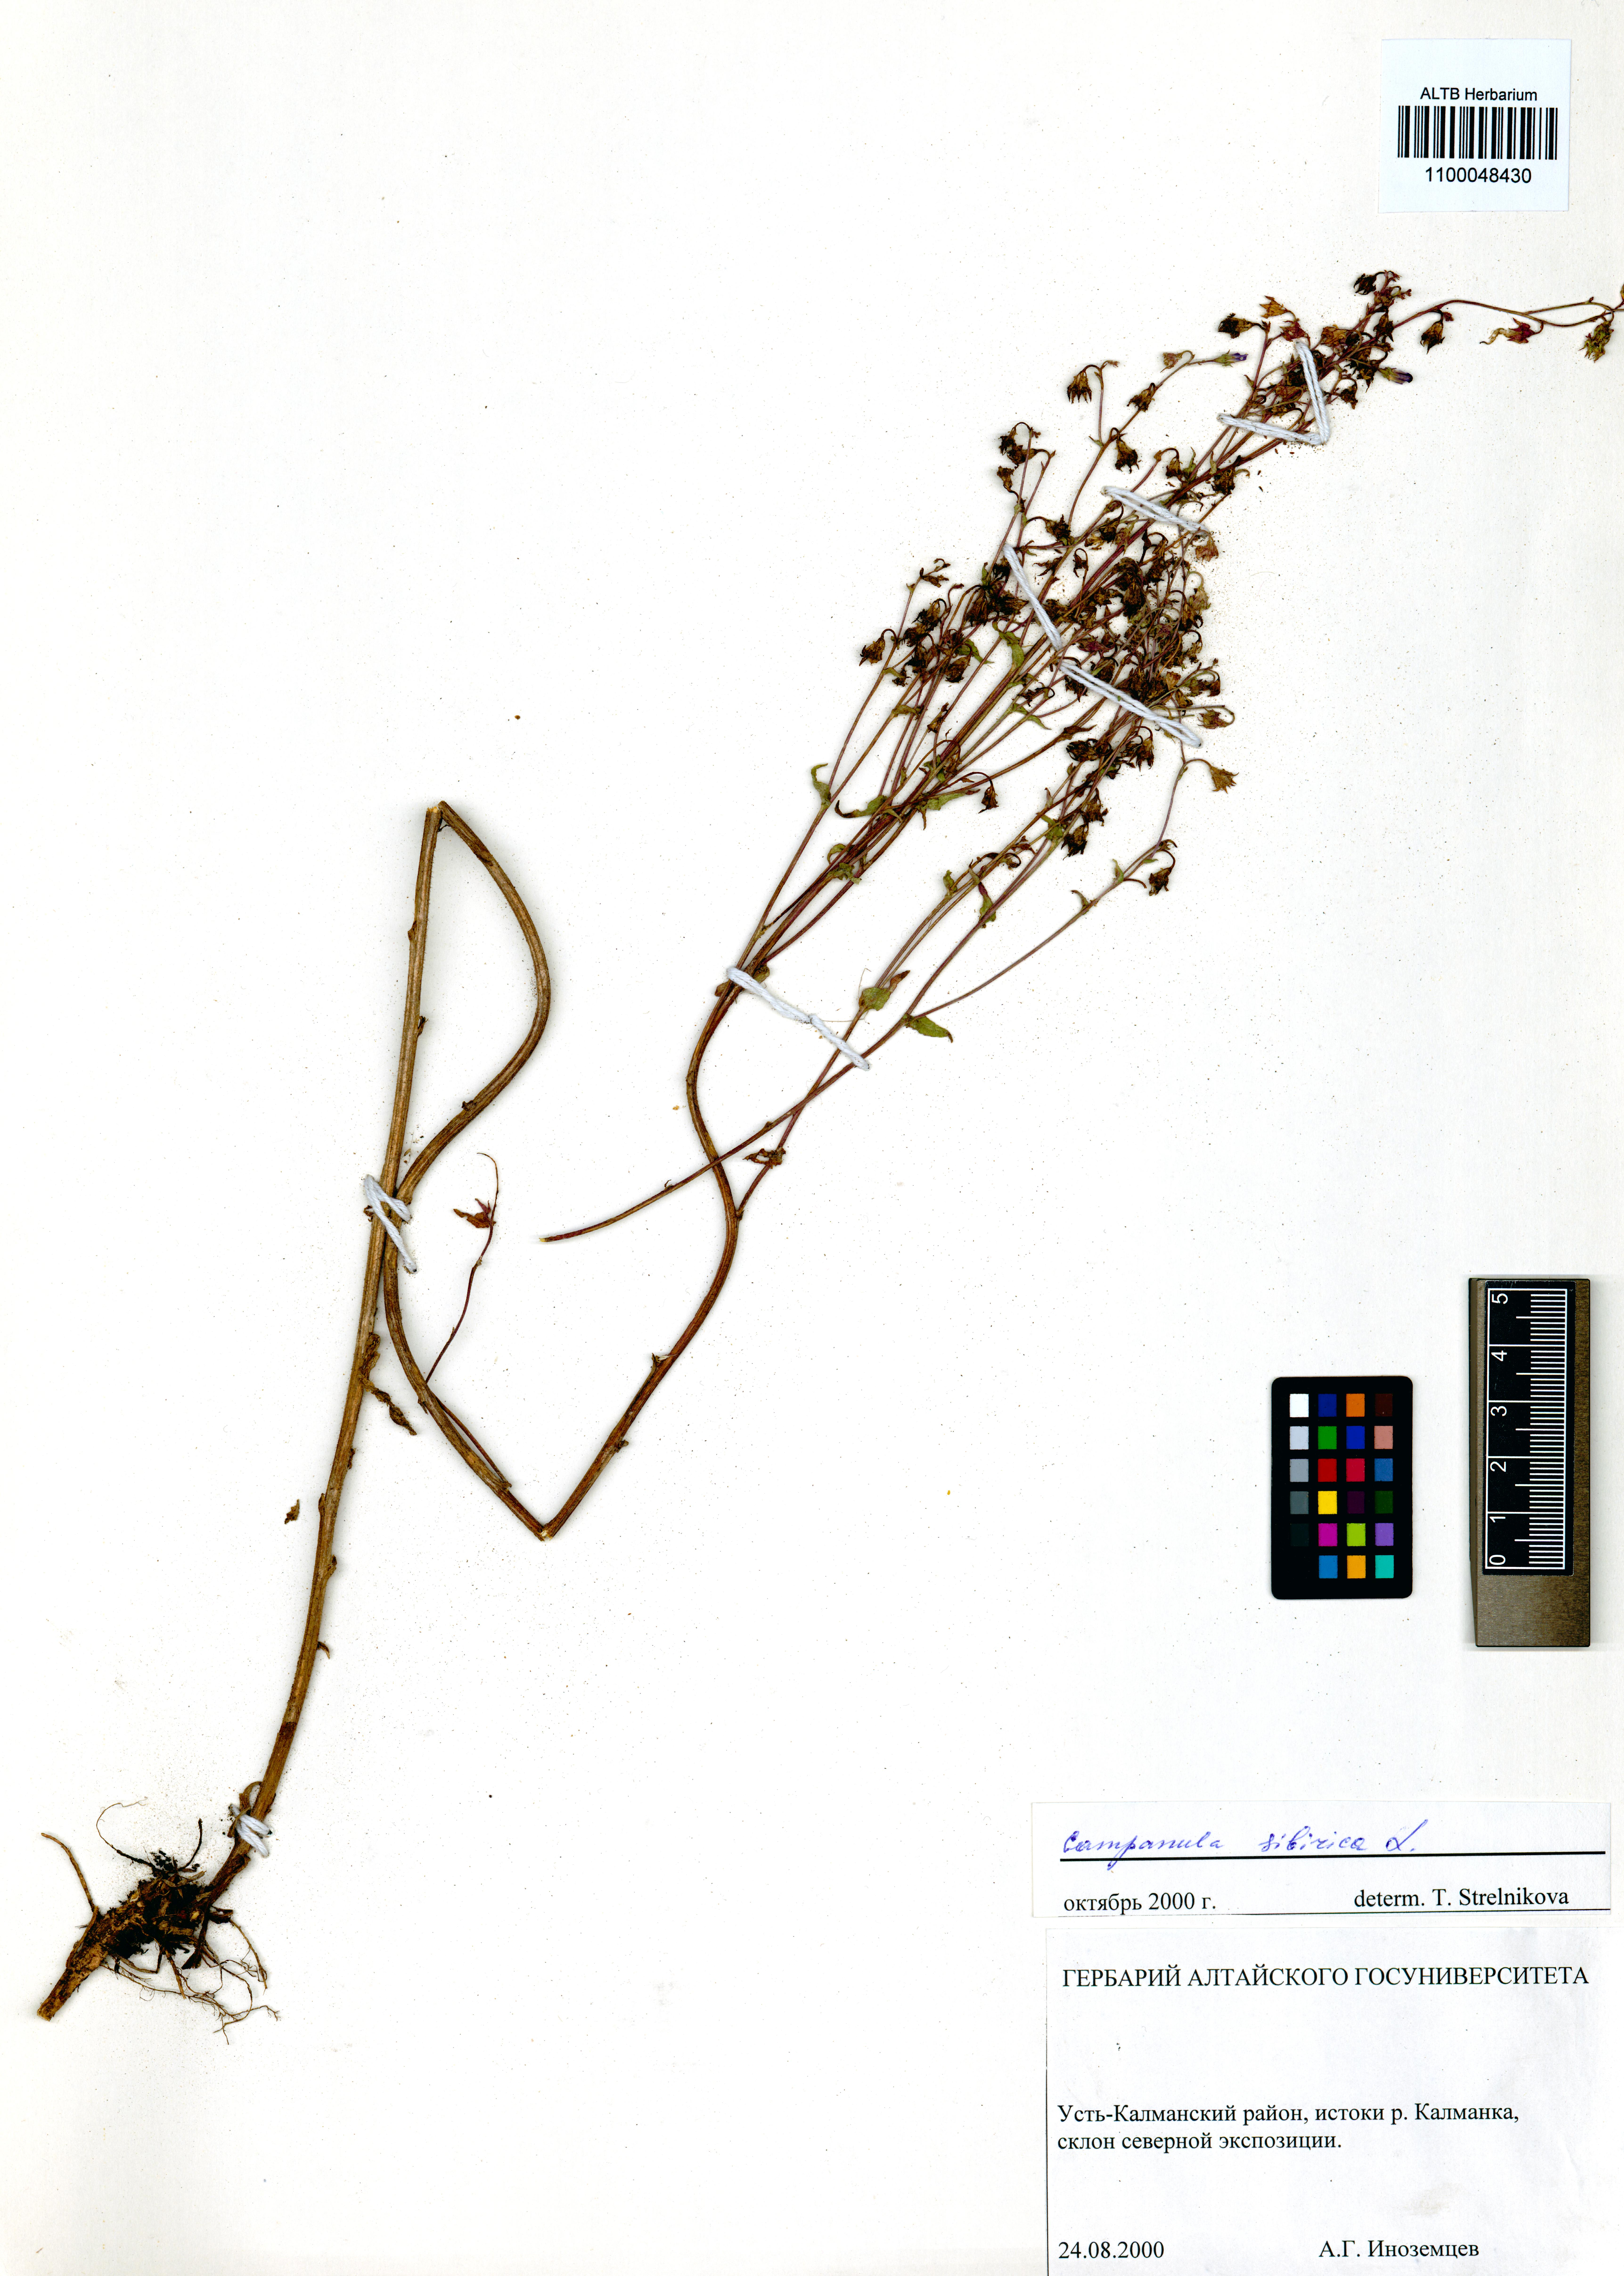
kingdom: Plantae
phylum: Tracheophyta
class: Magnoliopsida
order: Asterales
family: Campanulaceae
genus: Campanula
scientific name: Campanula sibirica
